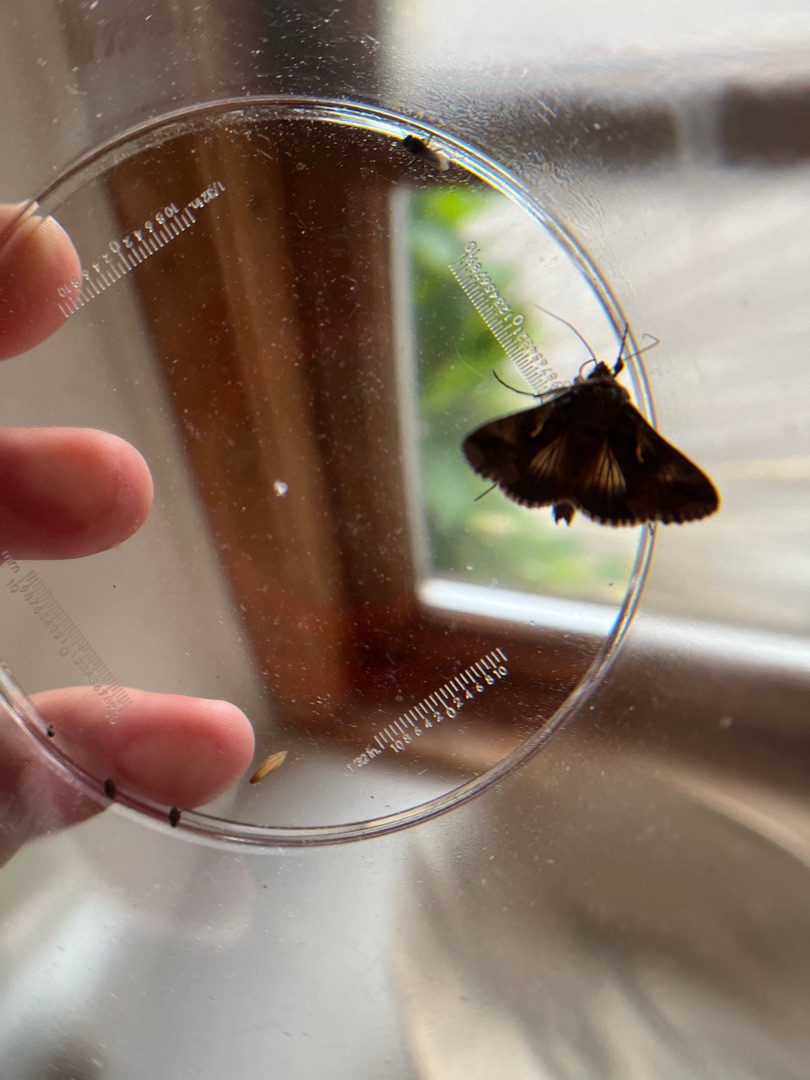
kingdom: Animalia
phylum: Arthropoda
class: Insecta
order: Lepidoptera
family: Noctuidae
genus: Autographa
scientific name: Autographa gamma
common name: Gammaugle
